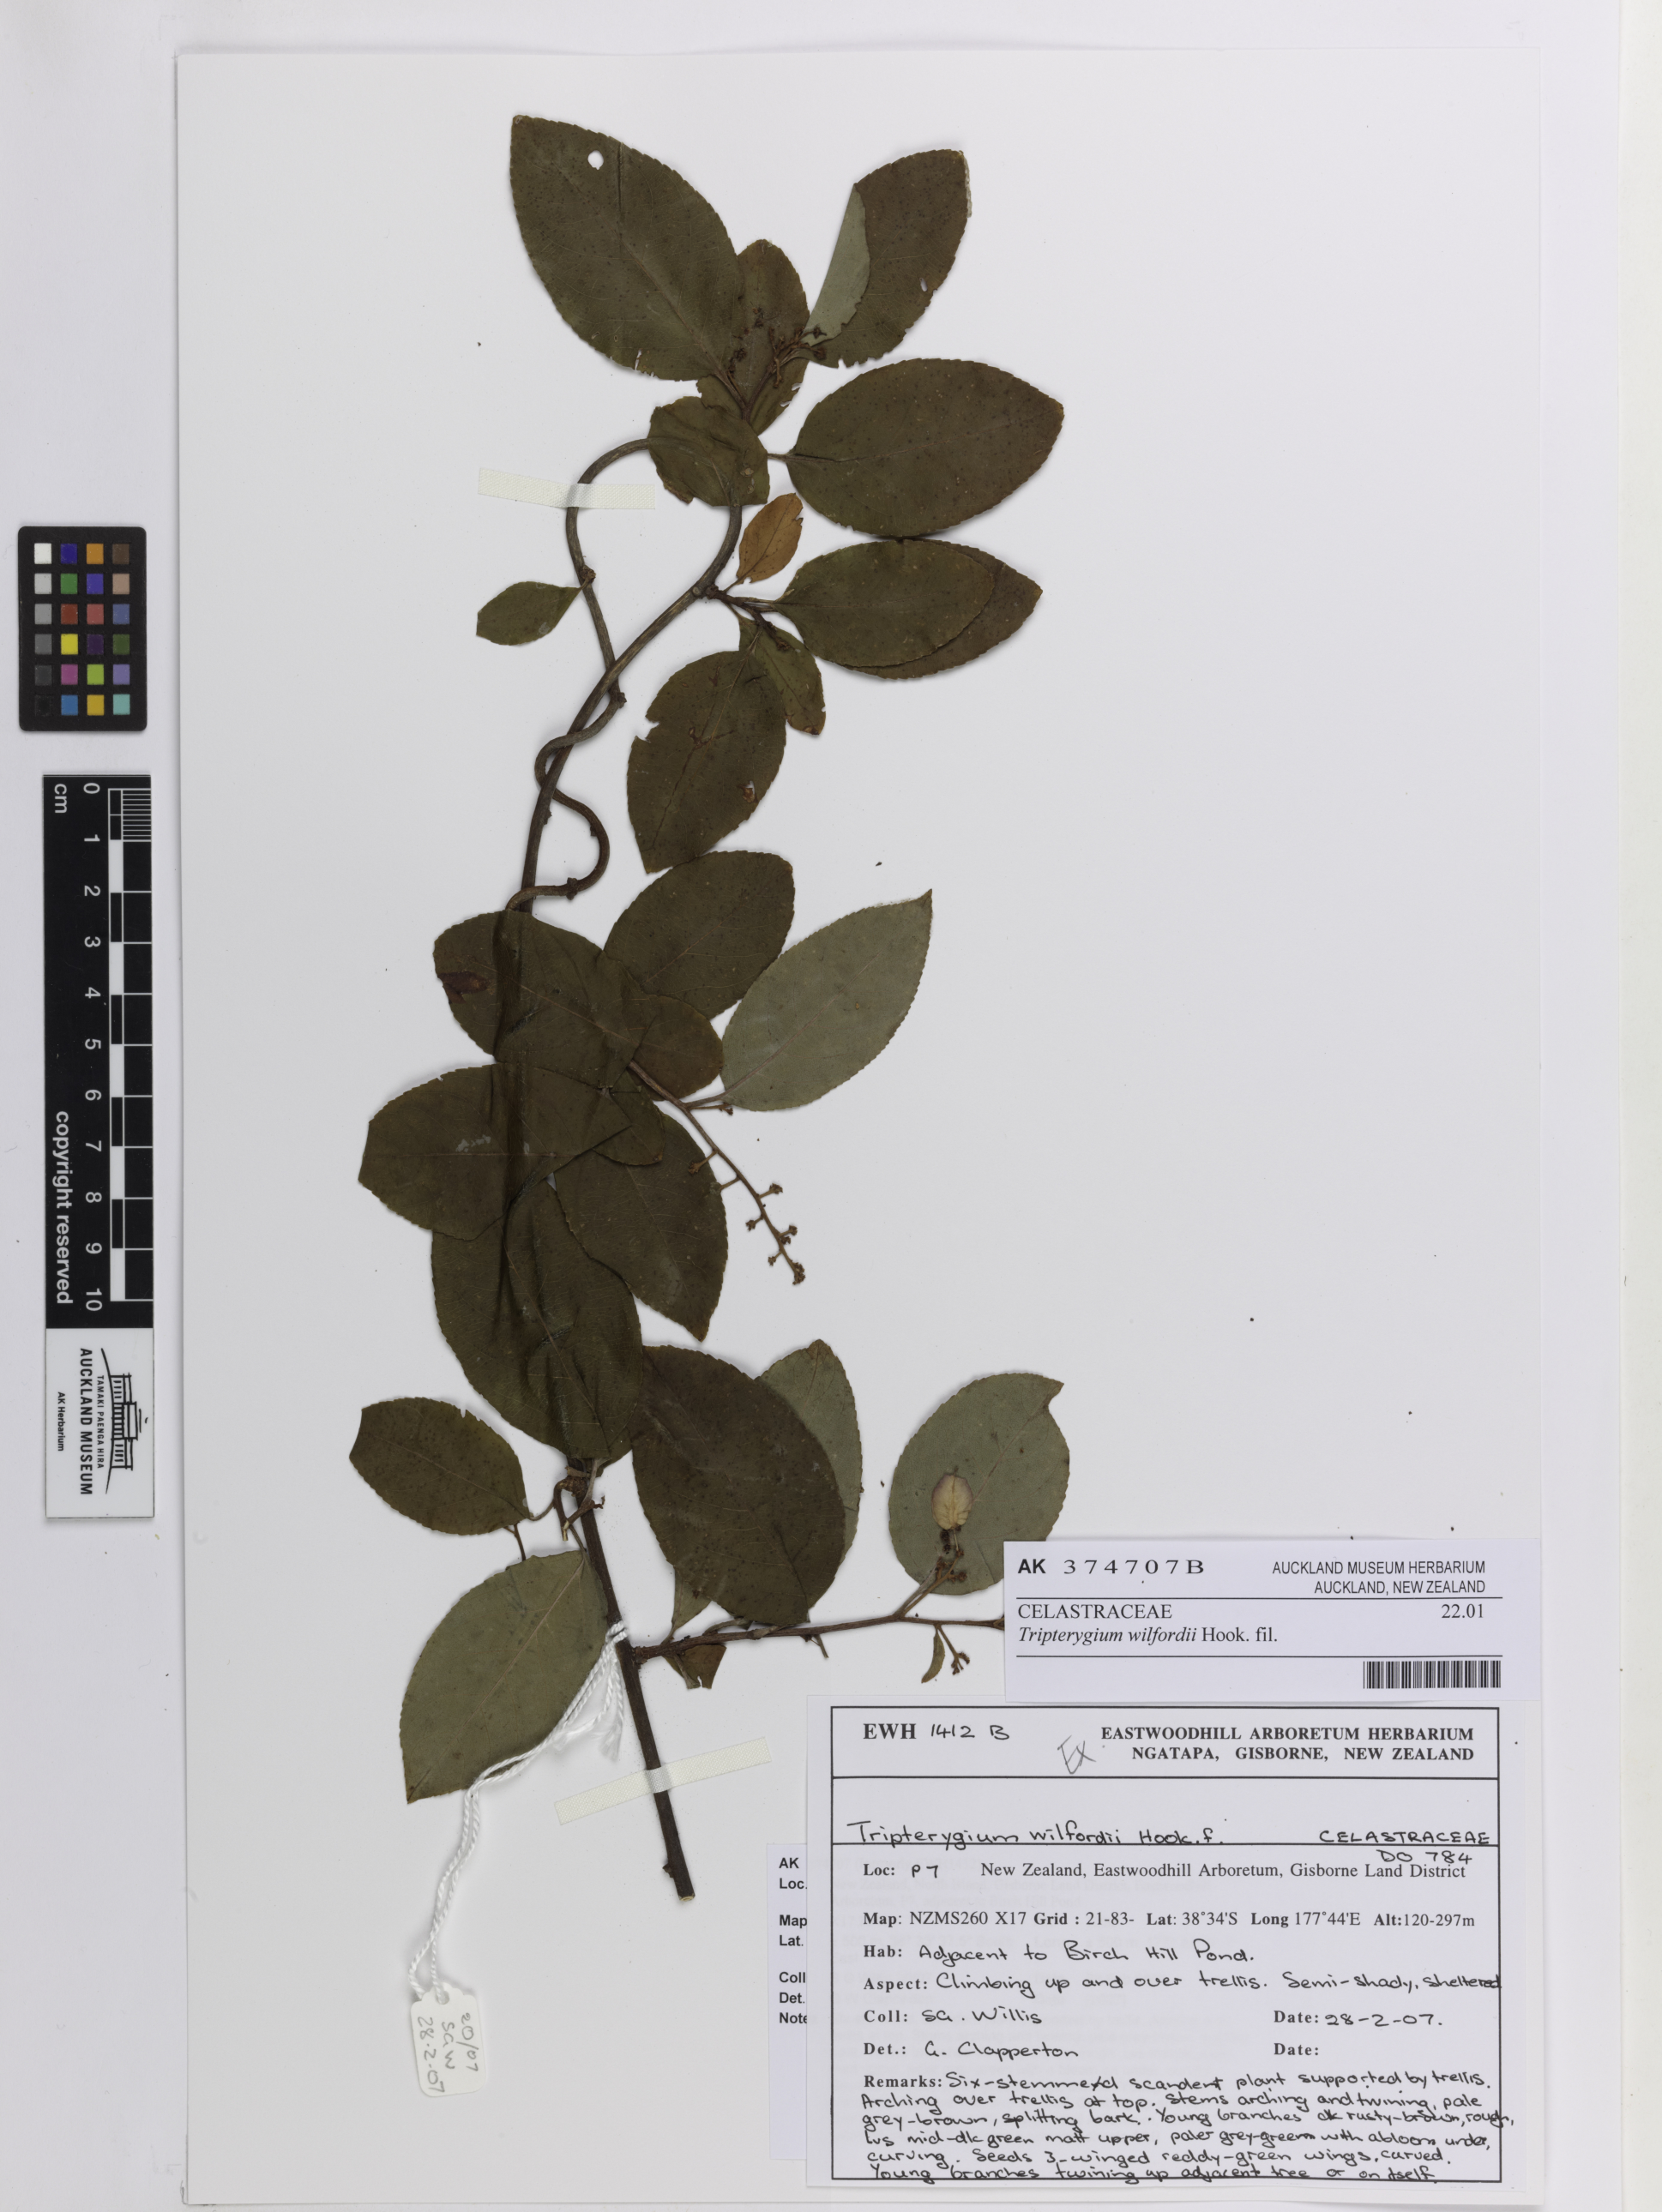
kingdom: Plantae
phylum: Tracheophyta
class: Magnoliopsida
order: Celastrales
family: Celastraceae
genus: Tripterygium
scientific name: Tripterygium wilfordii
